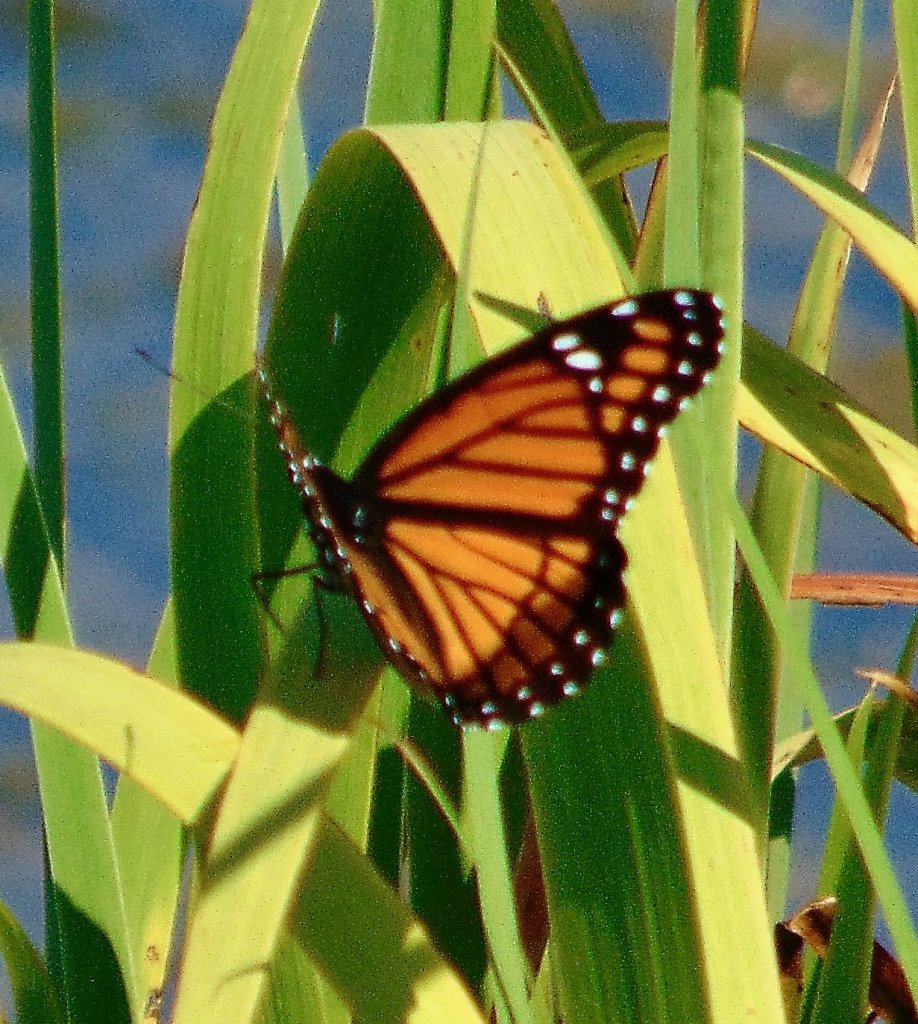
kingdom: Animalia
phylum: Arthropoda
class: Insecta
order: Lepidoptera
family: Nymphalidae
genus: Limenitis
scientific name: Limenitis archippus
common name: Viceroy
